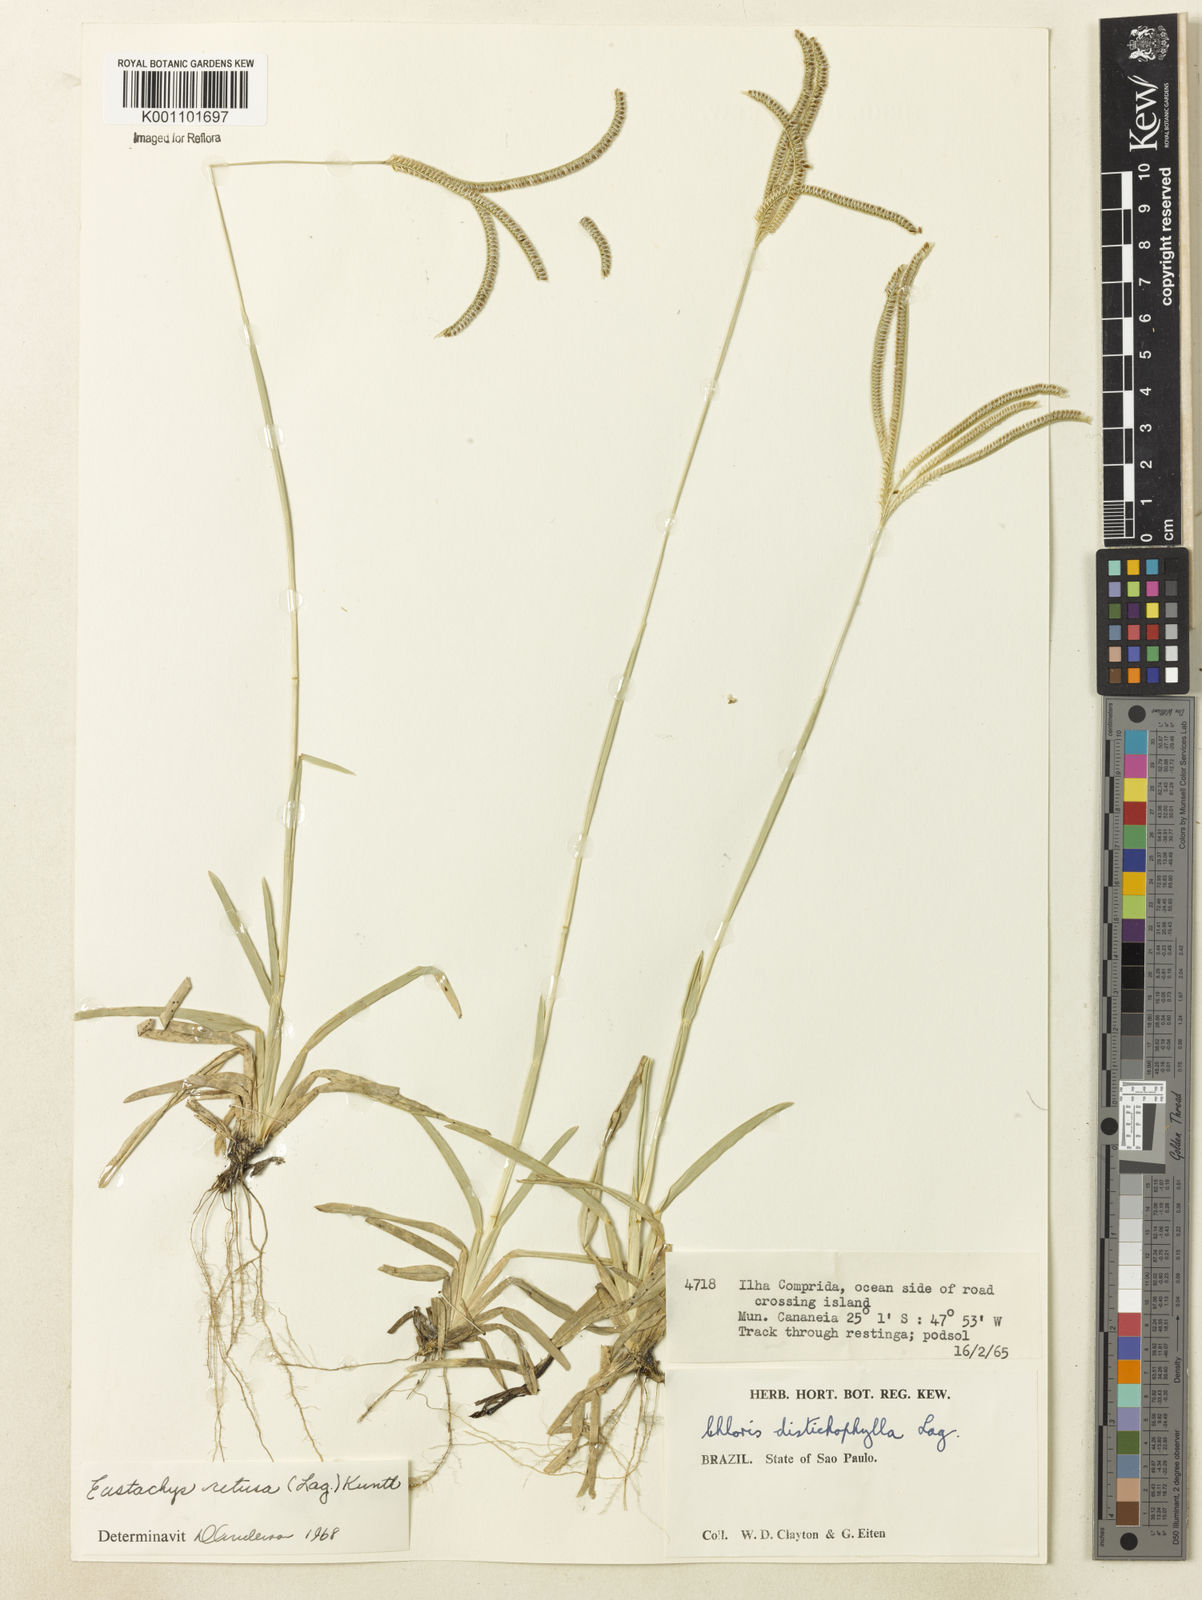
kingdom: Plantae
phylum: Tracheophyta
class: Liliopsida
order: Poales
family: Poaceae
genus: Eustachys
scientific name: Eustachys retusa
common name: Argentine fingergrass
